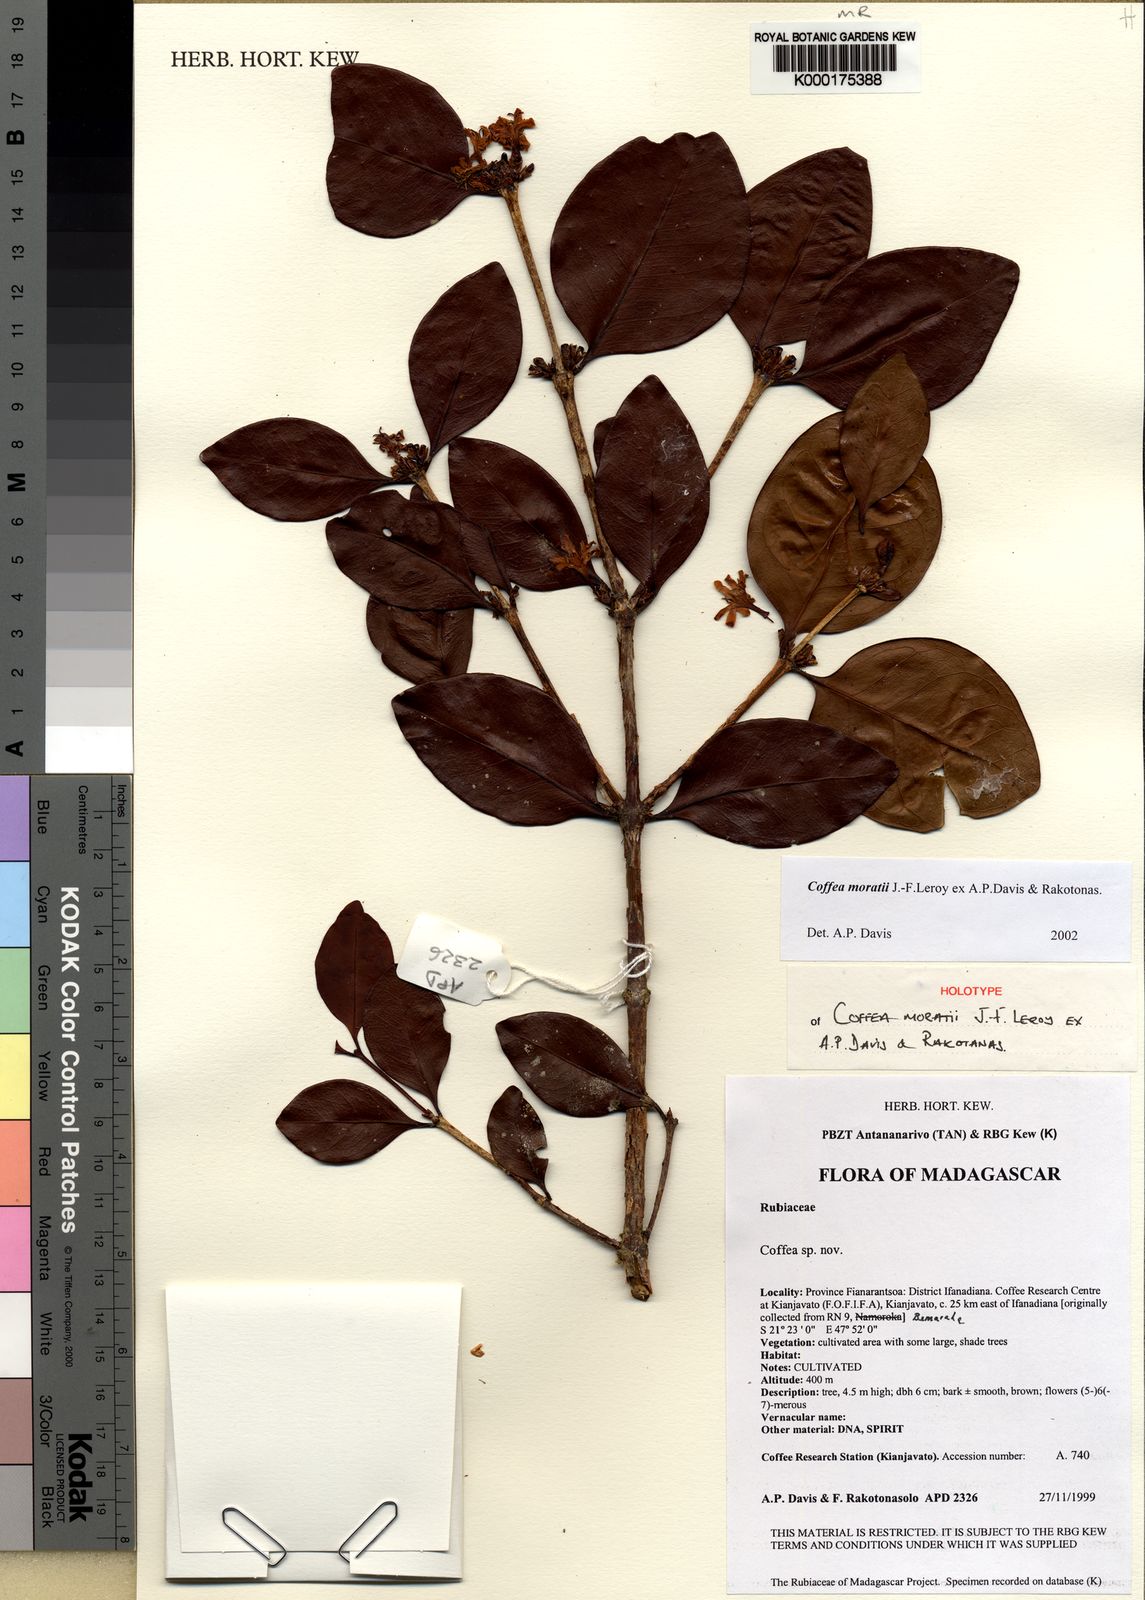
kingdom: Plantae
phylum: Tracheophyta
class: Magnoliopsida
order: Gentianales
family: Rubiaceae
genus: Coffea
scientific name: Coffea moratii
